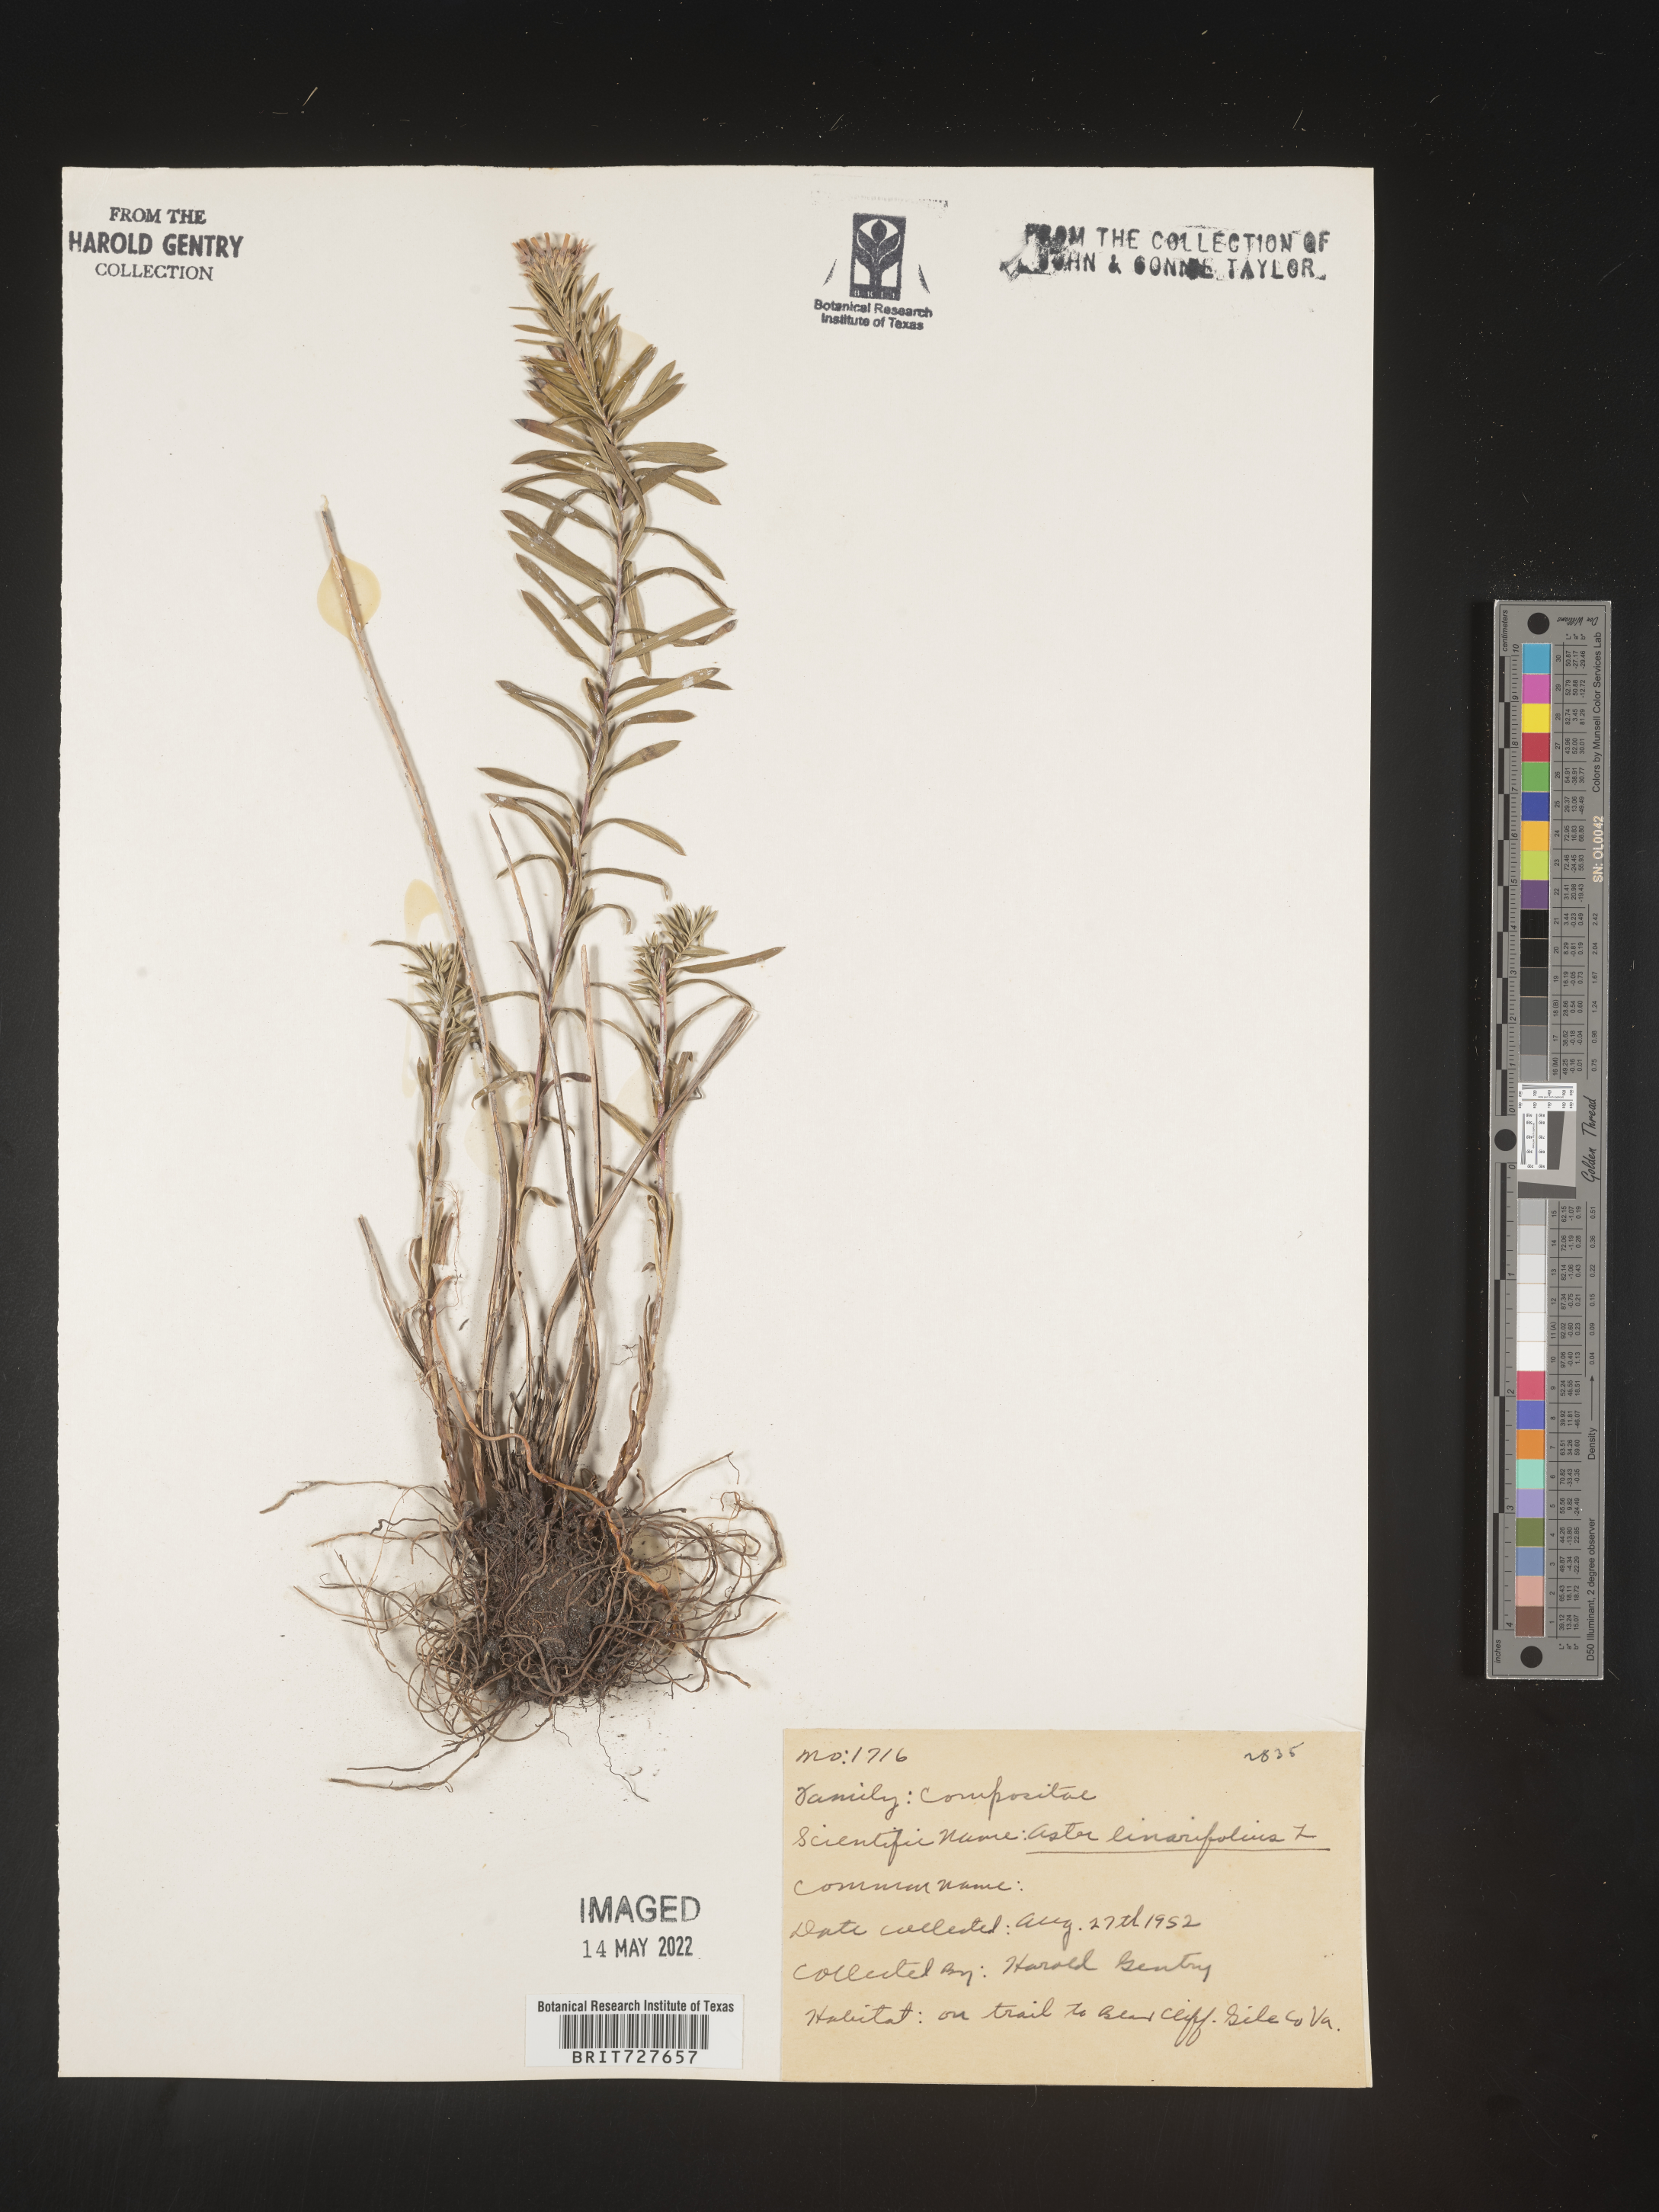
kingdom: Plantae
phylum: Tracheophyta
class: Magnoliopsida
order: Asterales
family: Asteraceae
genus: Ionactis
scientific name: Ionactis linariifolia
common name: Flax-leaf aster
